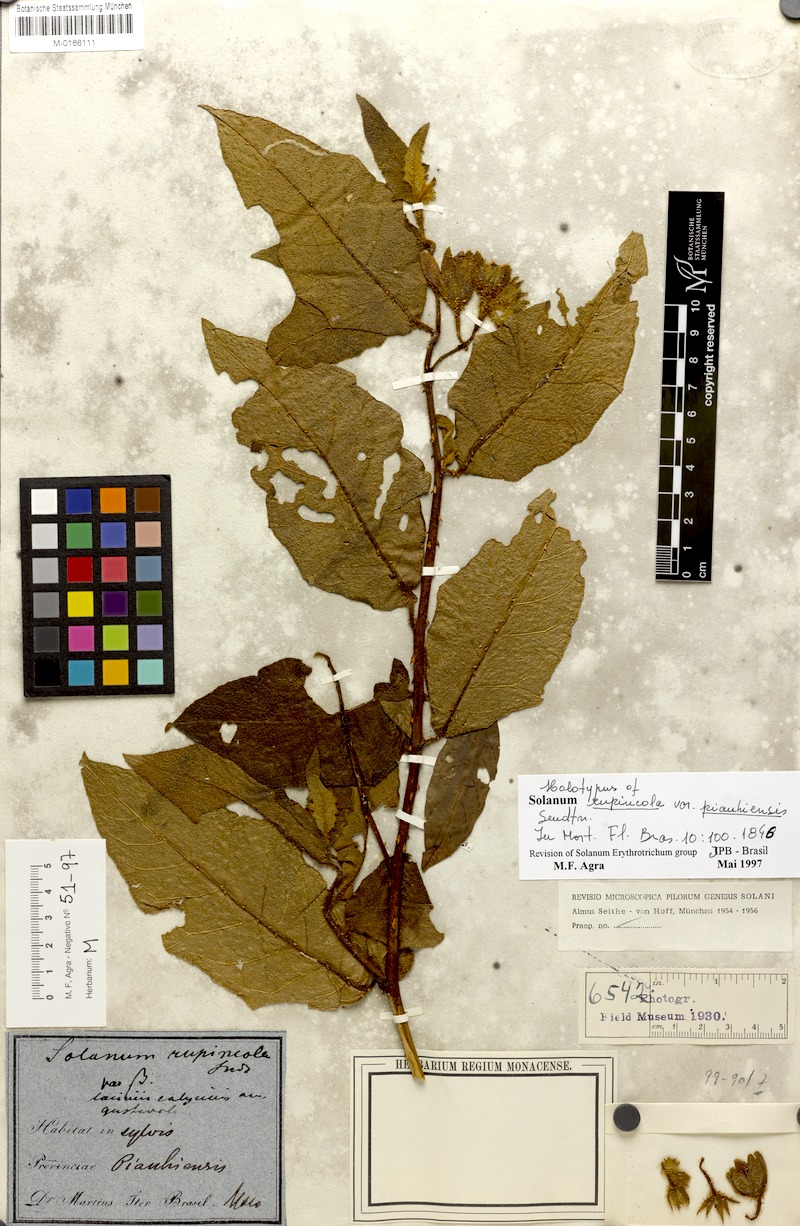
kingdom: Plantae
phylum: Tracheophyta
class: Magnoliopsida
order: Solanales
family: Solanaceae
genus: Solanum
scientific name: Solanum rupincola
